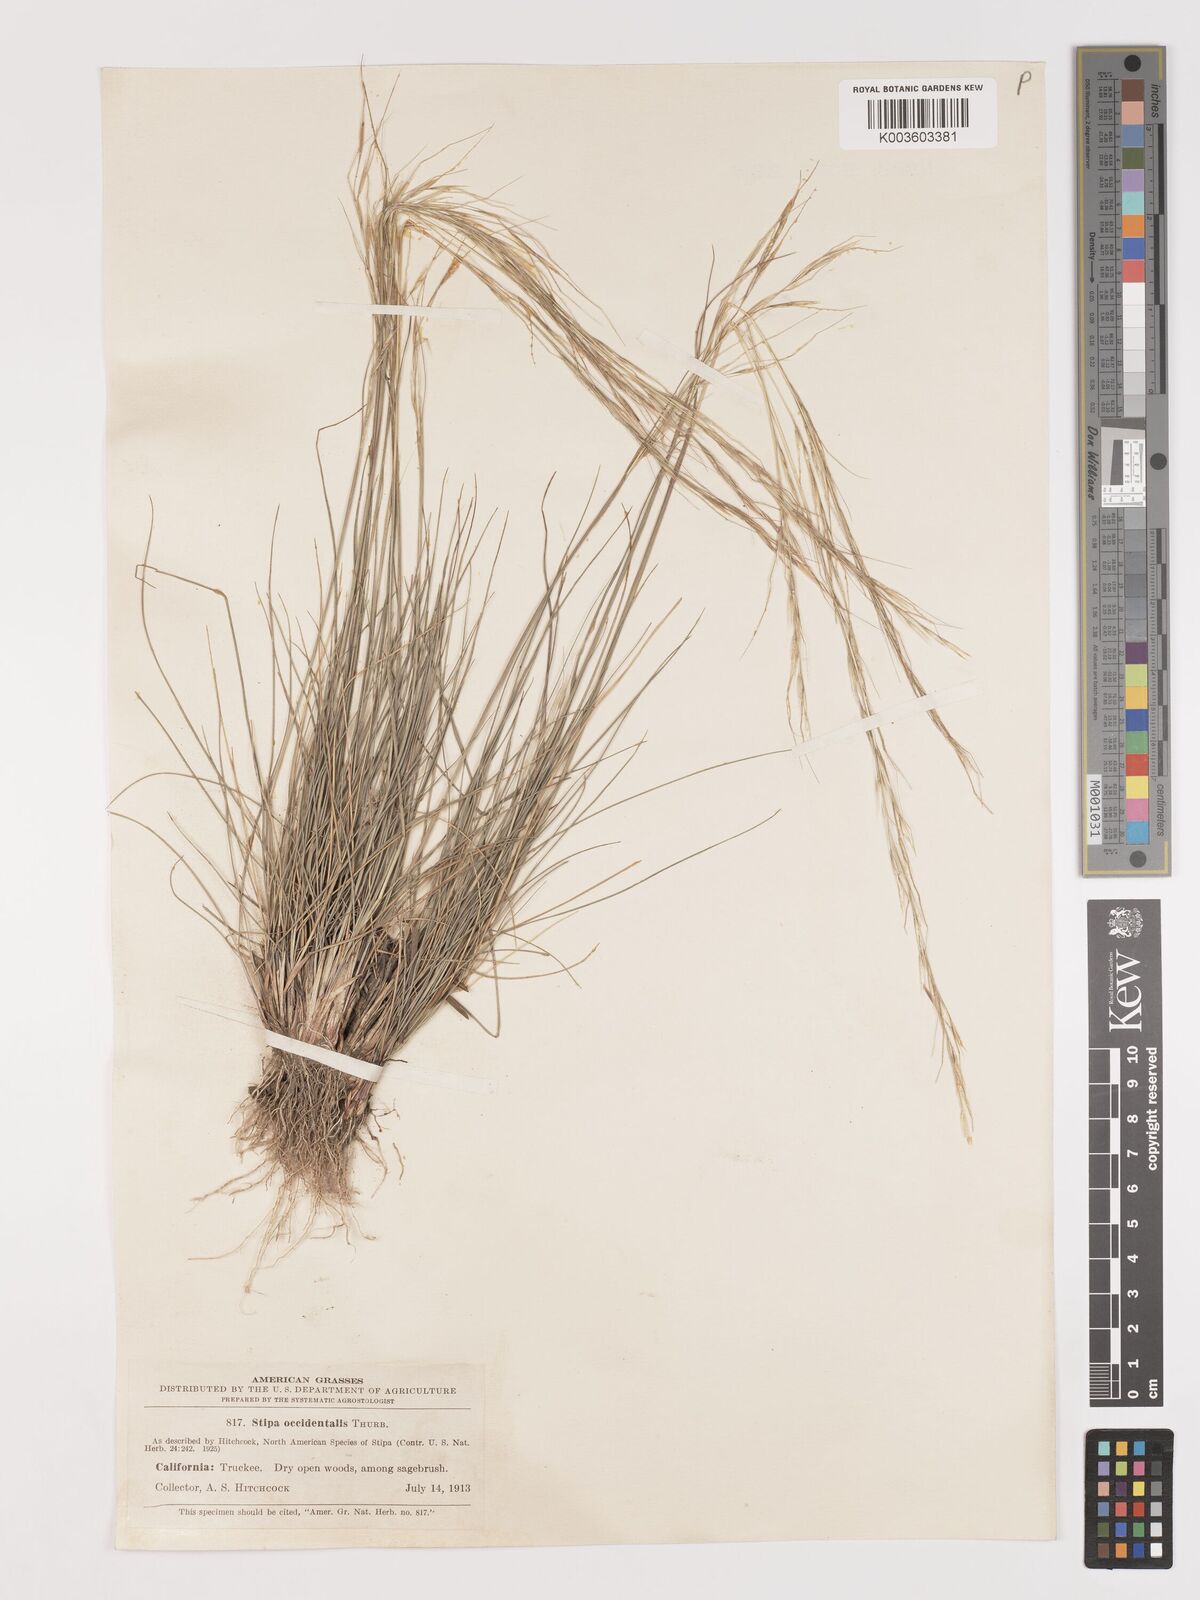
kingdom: Plantae
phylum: Tracheophyta
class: Liliopsida
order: Poales
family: Poaceae
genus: Eriocoma
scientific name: Eriocoma thurberiana
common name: Thurber's needlegrass
